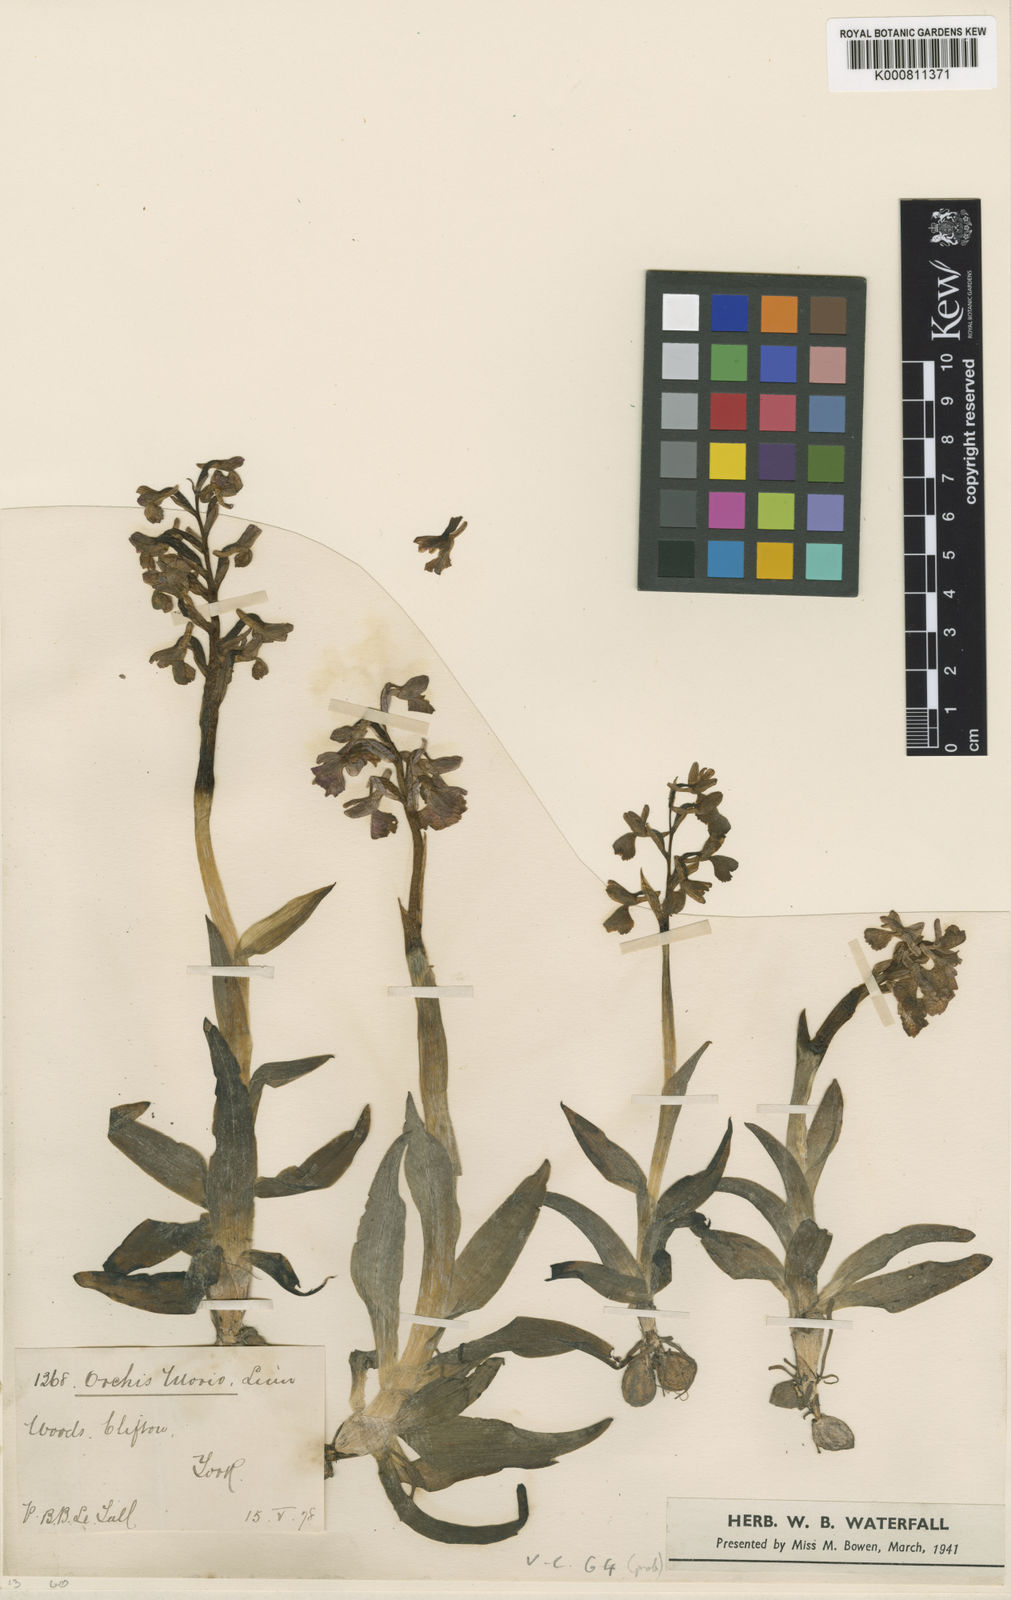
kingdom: Plantae
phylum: Tracheophyta
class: Liliopsida
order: Asparagales
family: Orchidaceae
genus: Anacamptis
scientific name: Anacamptis morio
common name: Green-winged orchid
